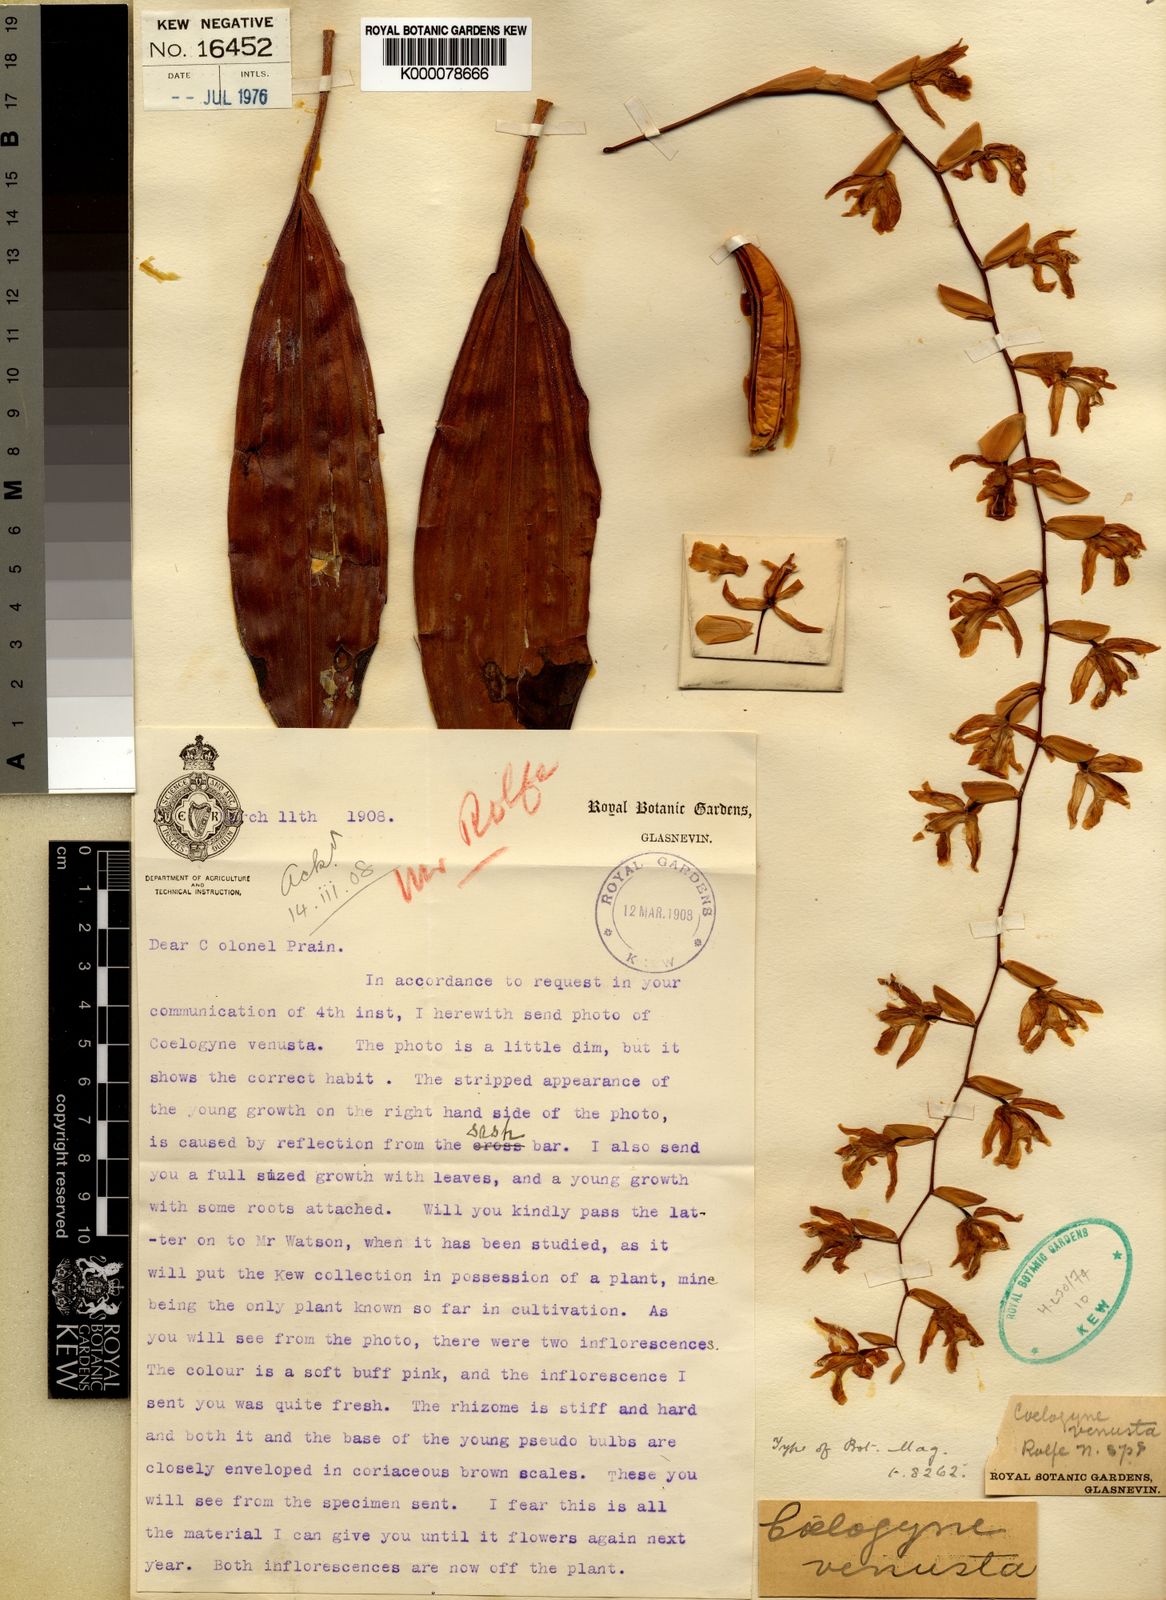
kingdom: Plantae
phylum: Tracheophyta
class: Liliopsida
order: Asparagales
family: Orchidaceae
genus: Coelogyne
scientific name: Coelogyne venusta
